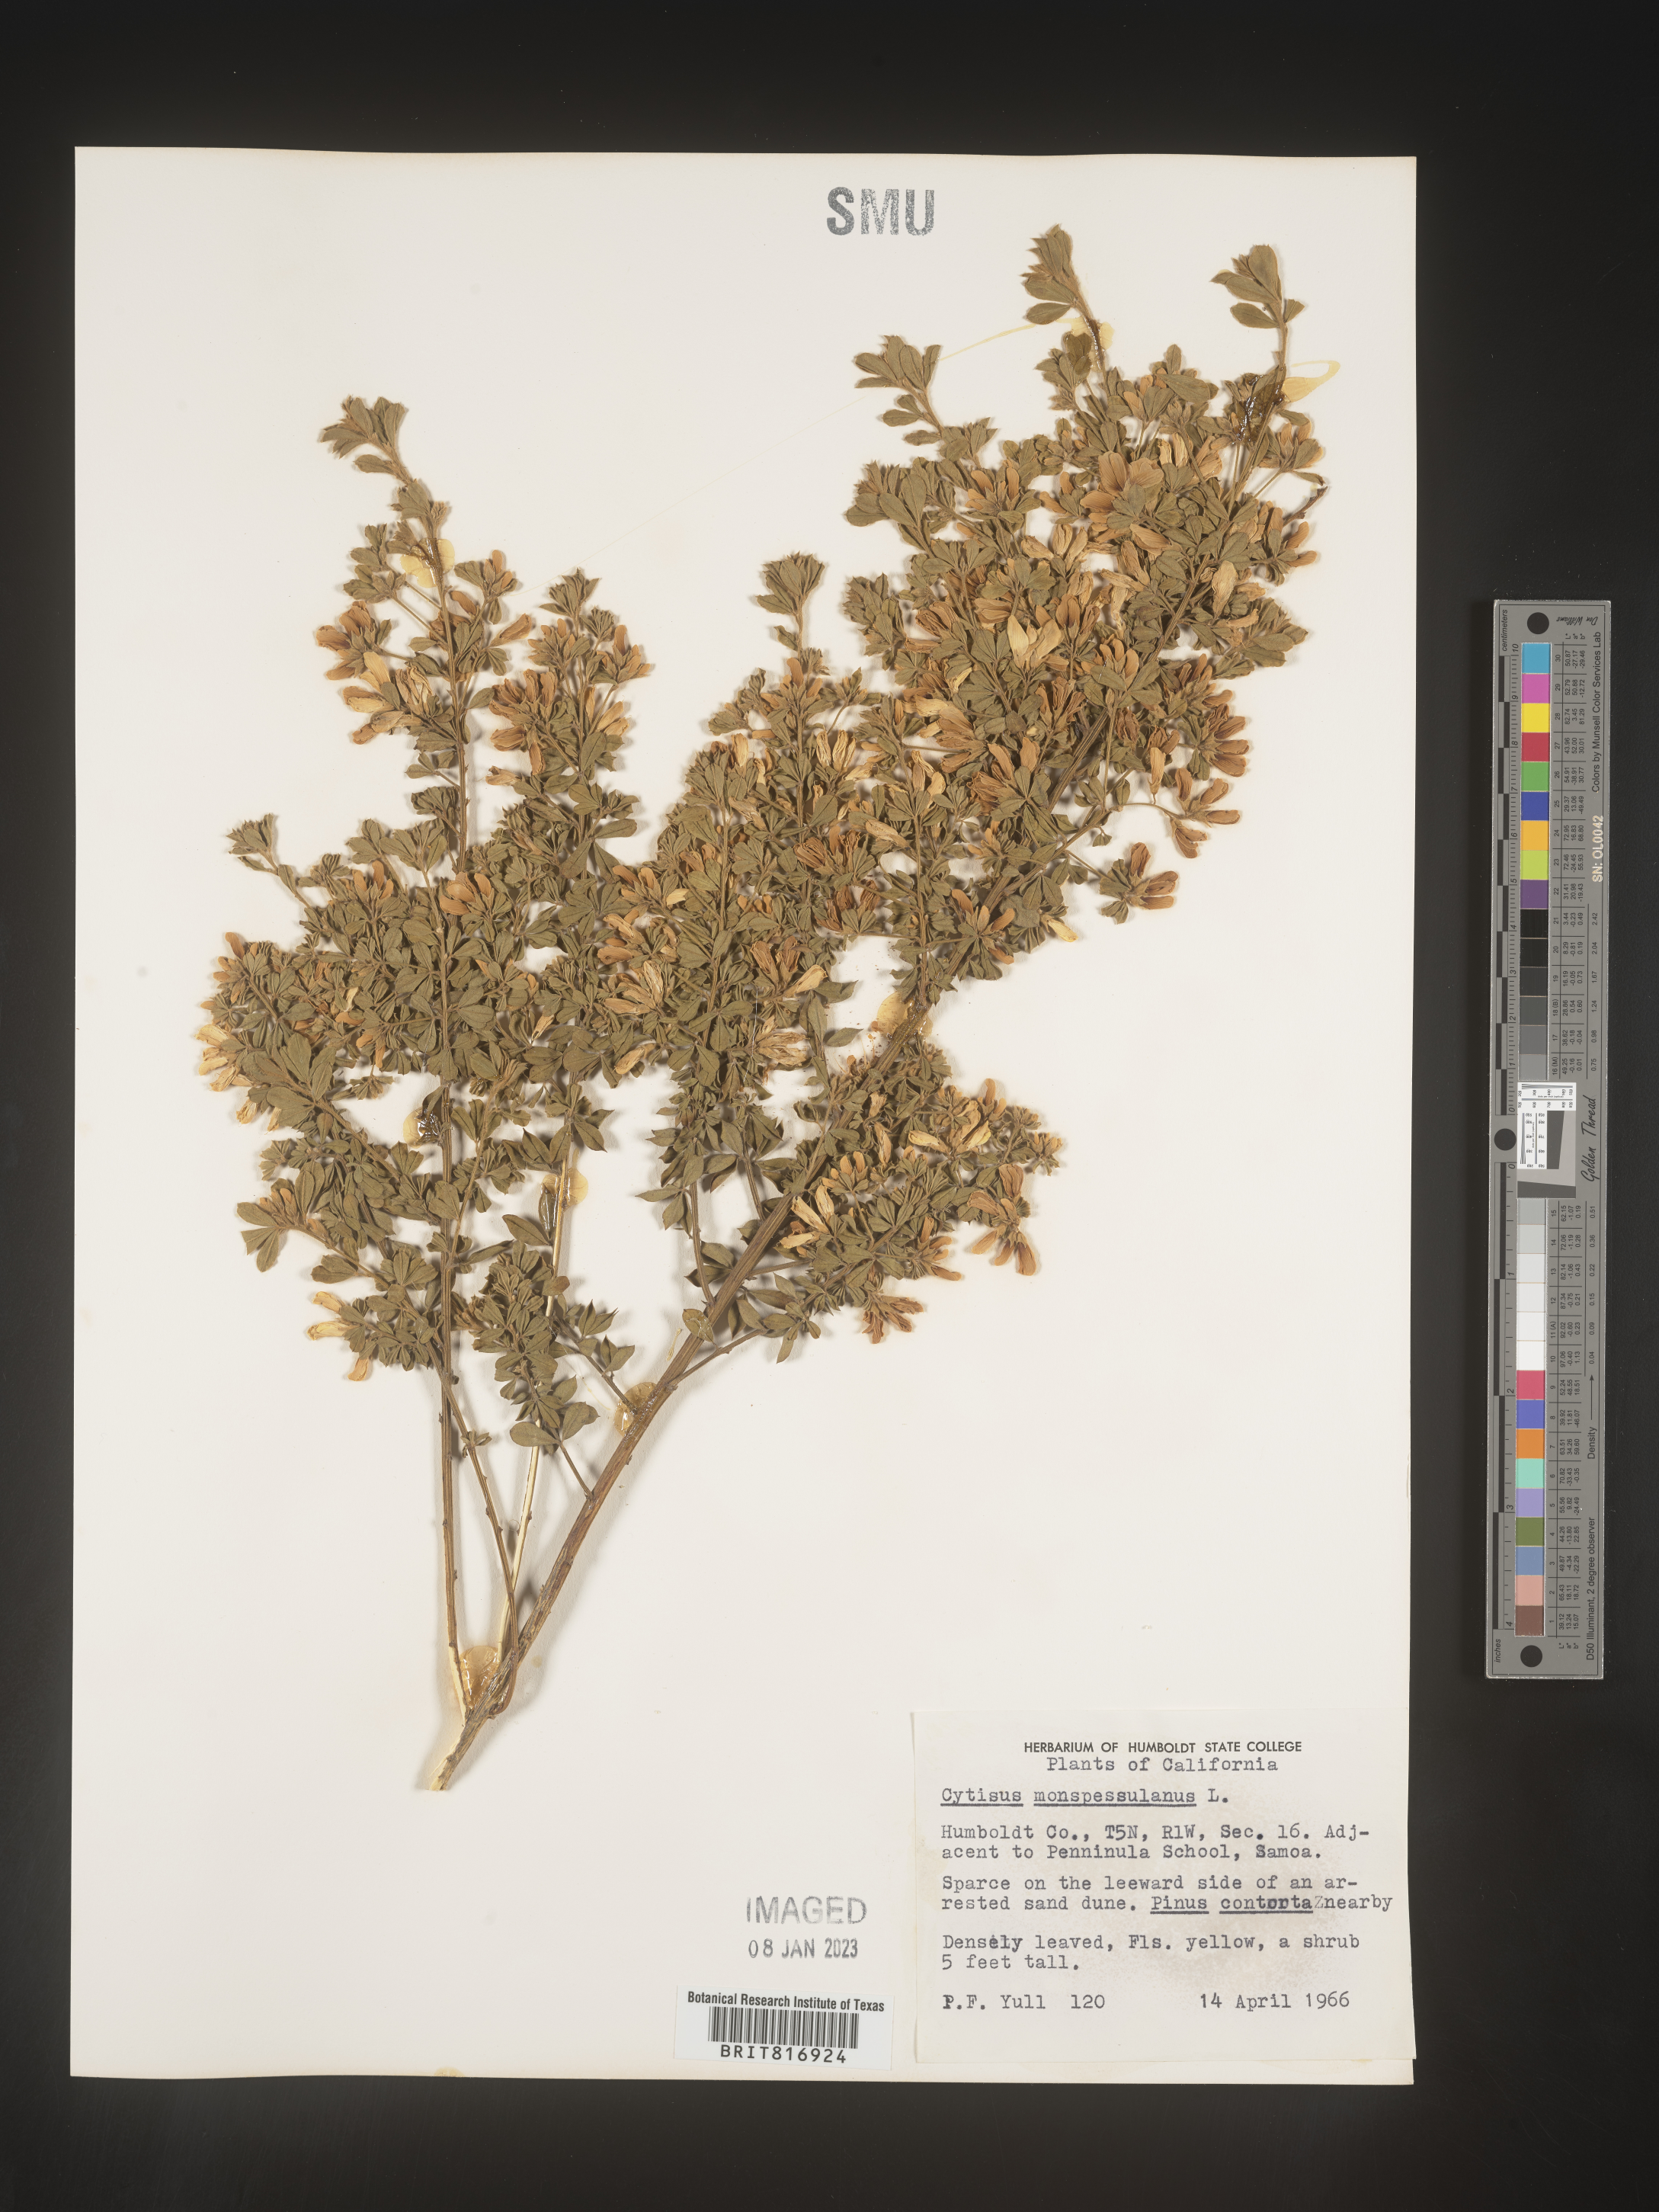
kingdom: Plantae
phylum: Tracheophyta
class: Magnoliopsida
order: Fabales
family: Fabaceae
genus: Cytisus
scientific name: Cytisus
